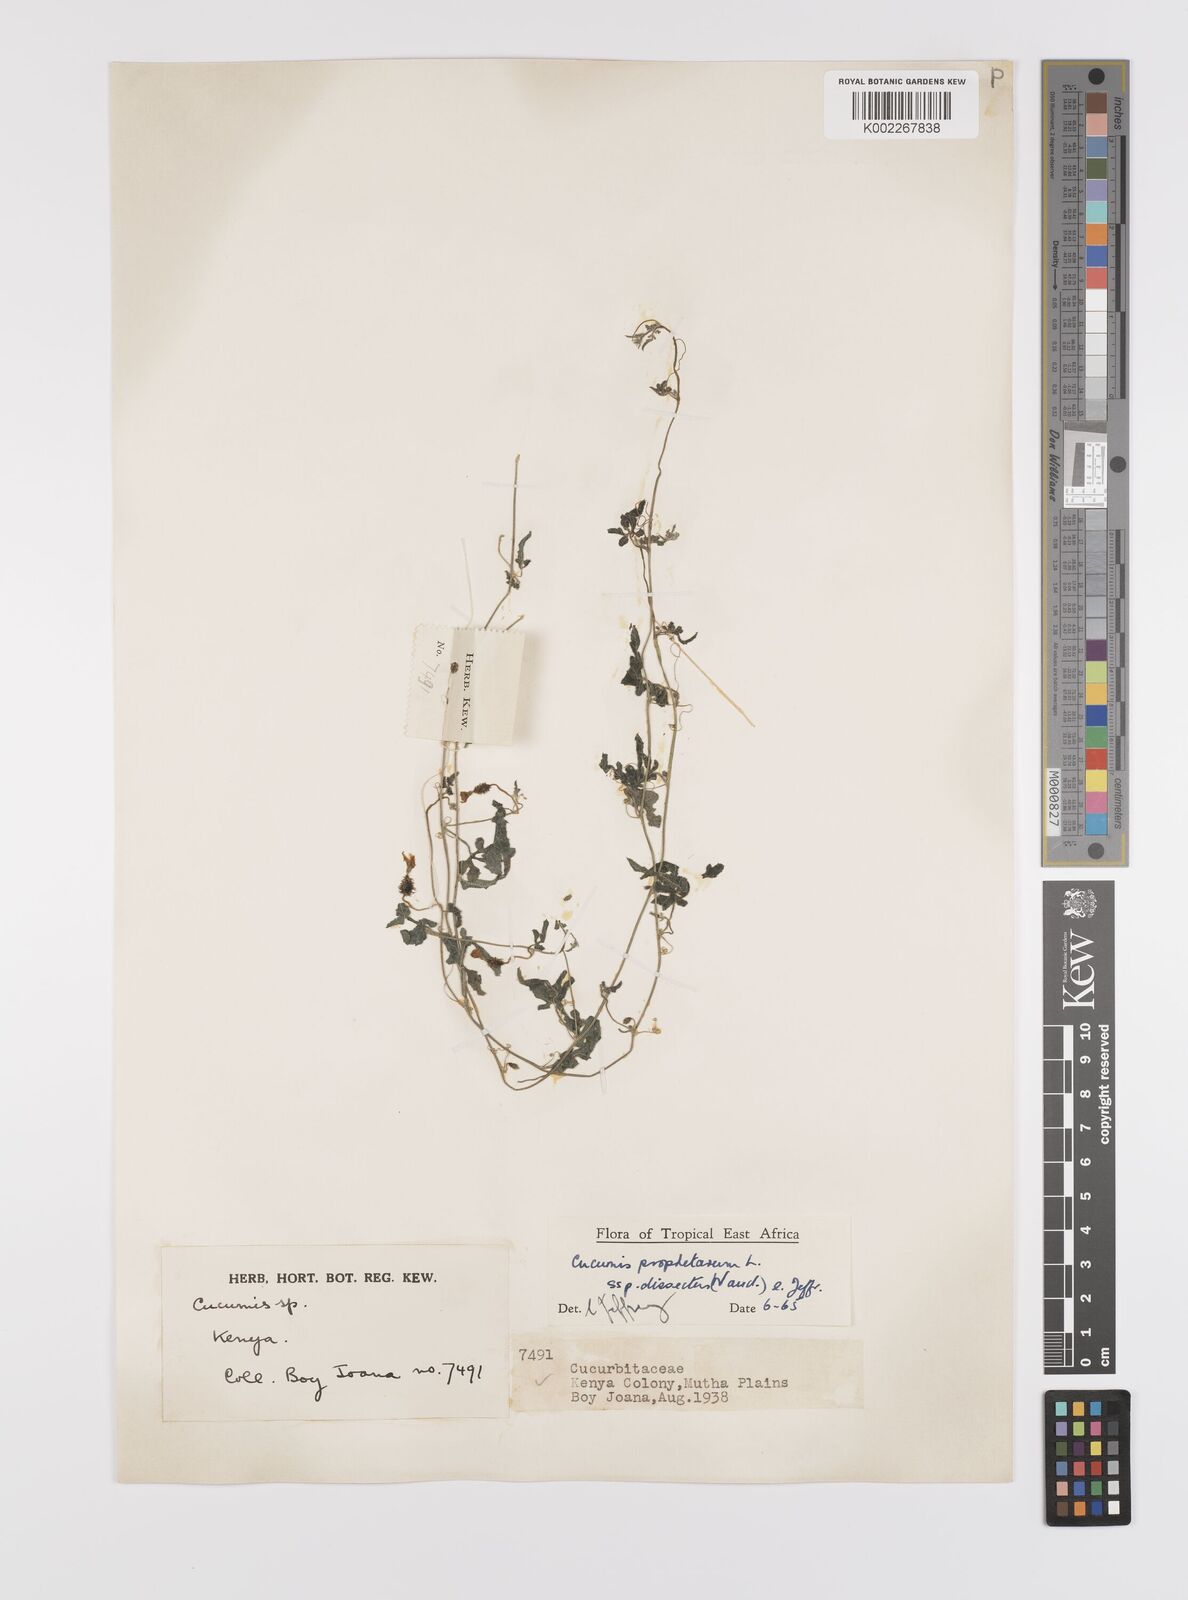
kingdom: Plantae
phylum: Tracheophyta
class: Magnoliopsida
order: Cucurbitales
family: Cucurbitaceae
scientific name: Cucurbitaceae
